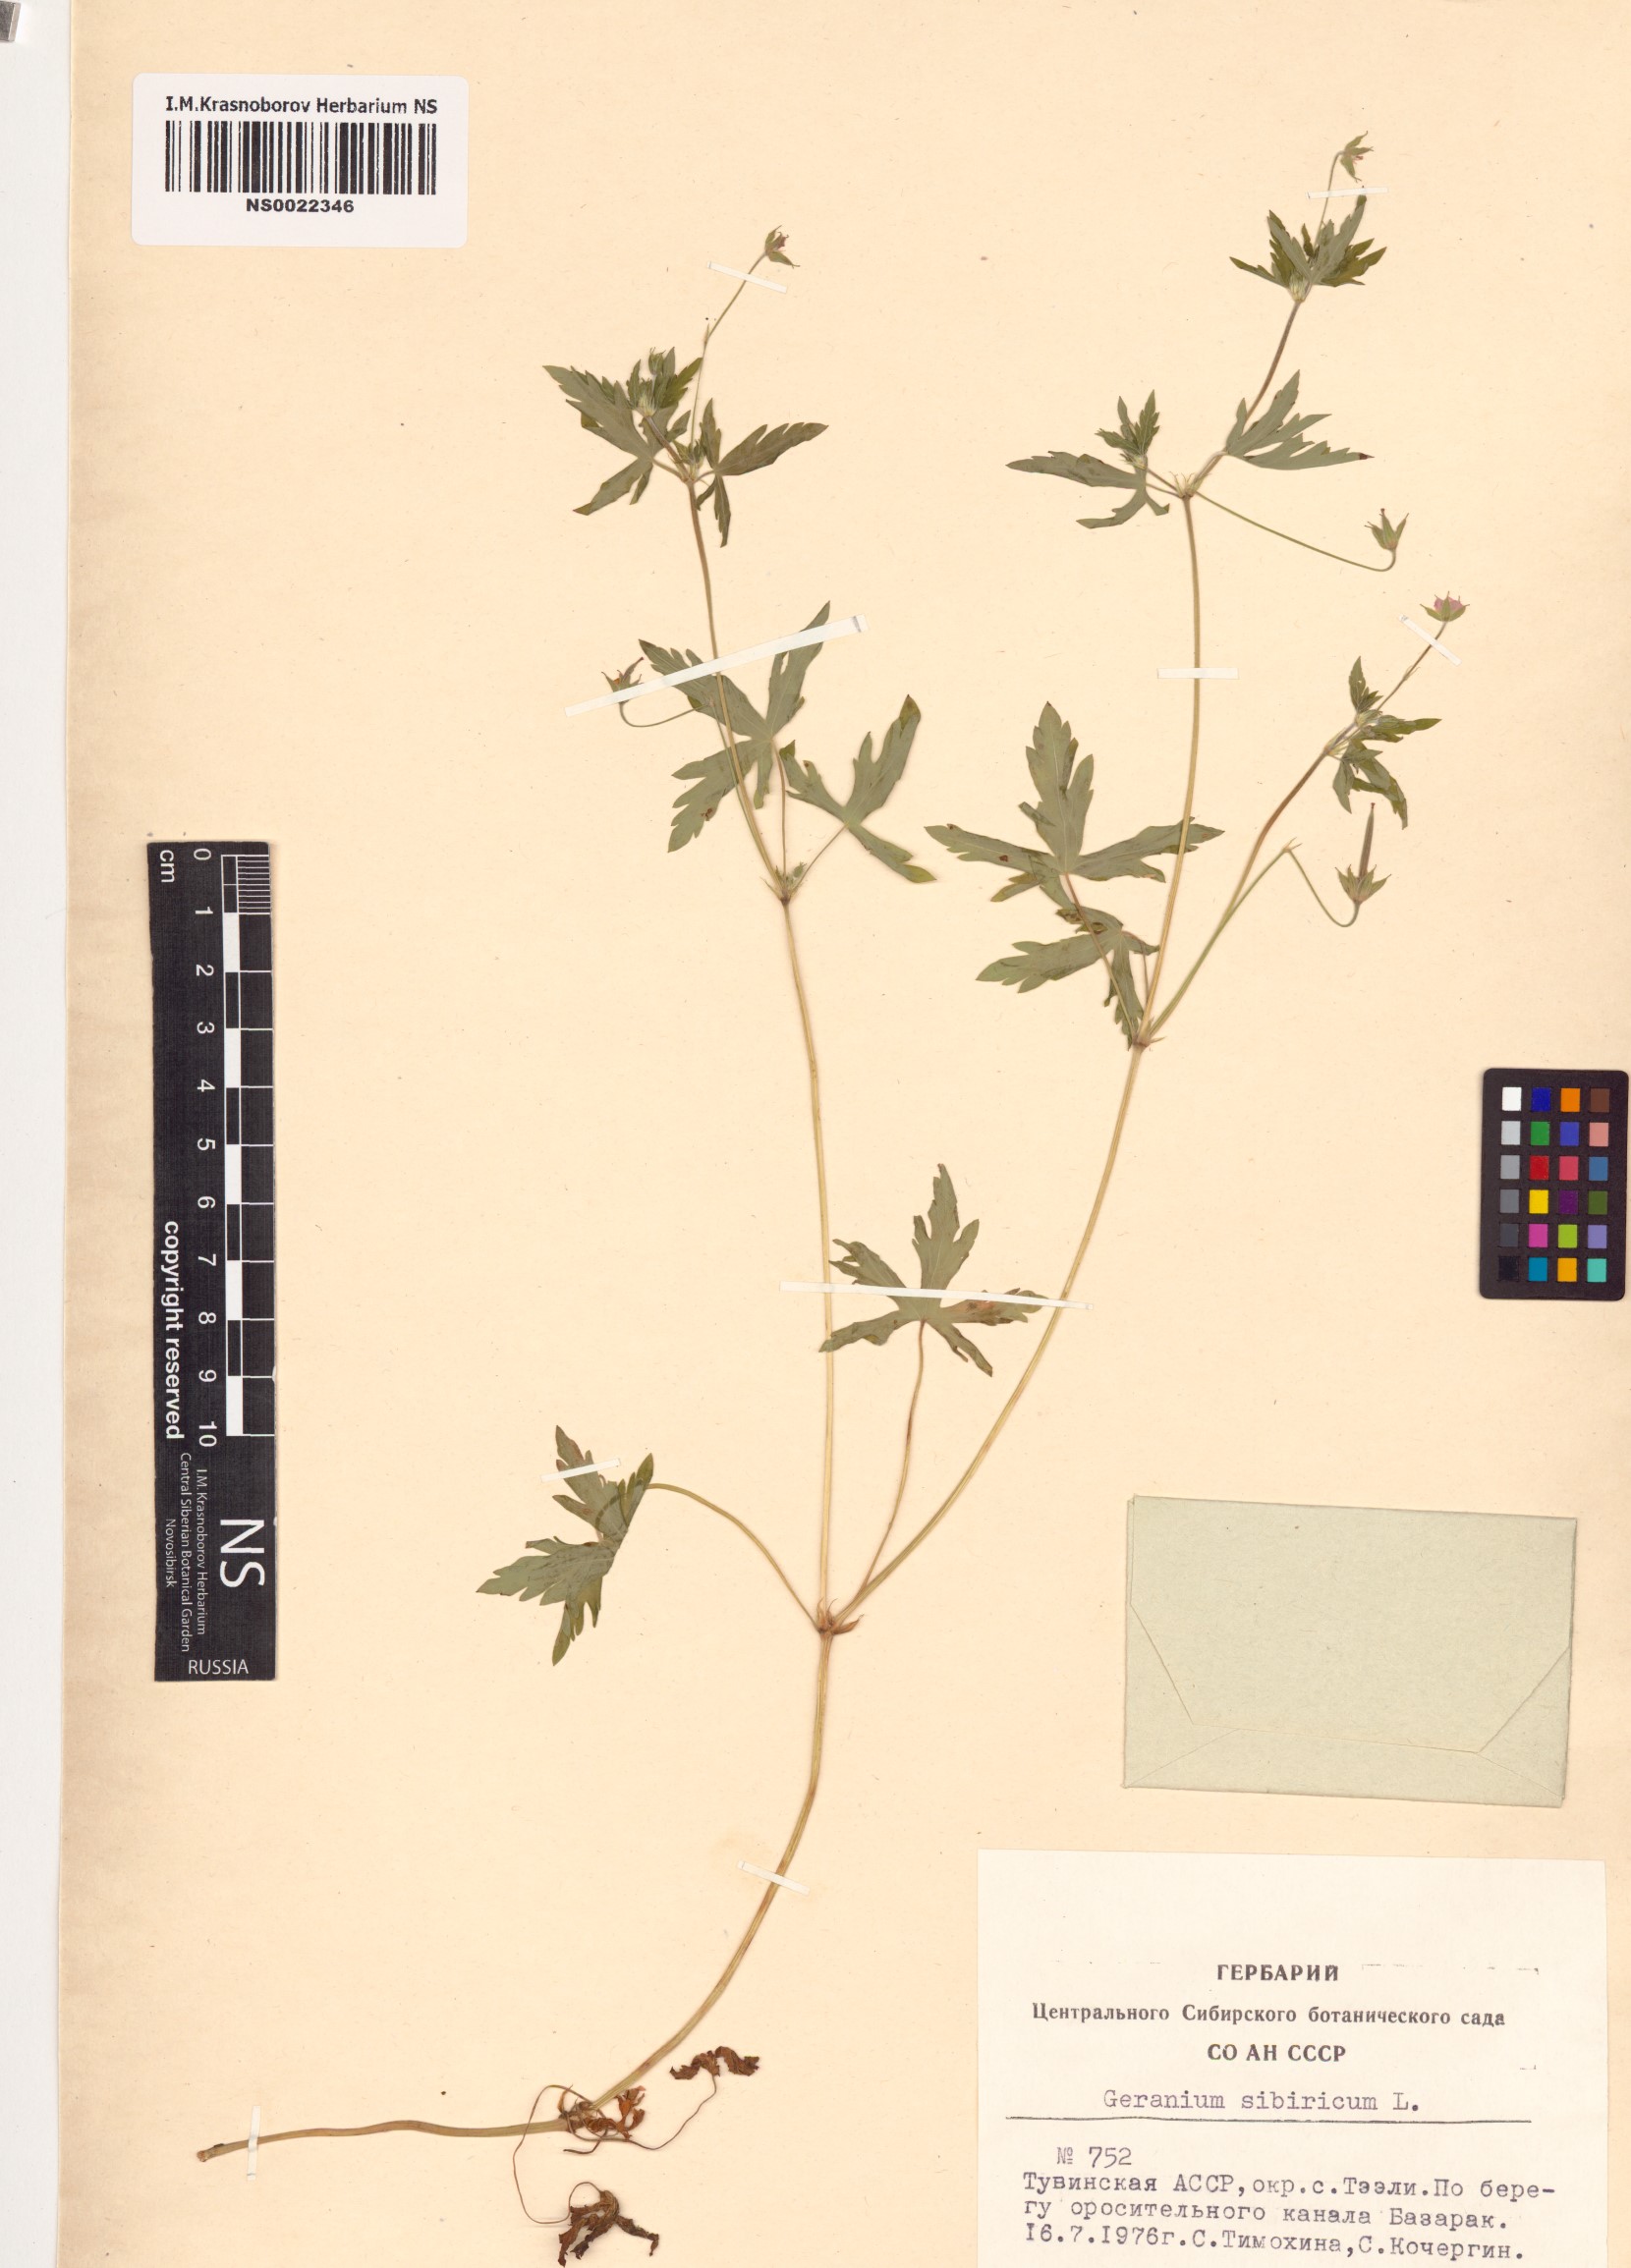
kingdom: Plantae
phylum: Tracheophyta
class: Magnoliopsida
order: Geraniales
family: Geraniaceae
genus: Geranium
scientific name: Geranium sibiricum
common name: Siberian crane's-bill
